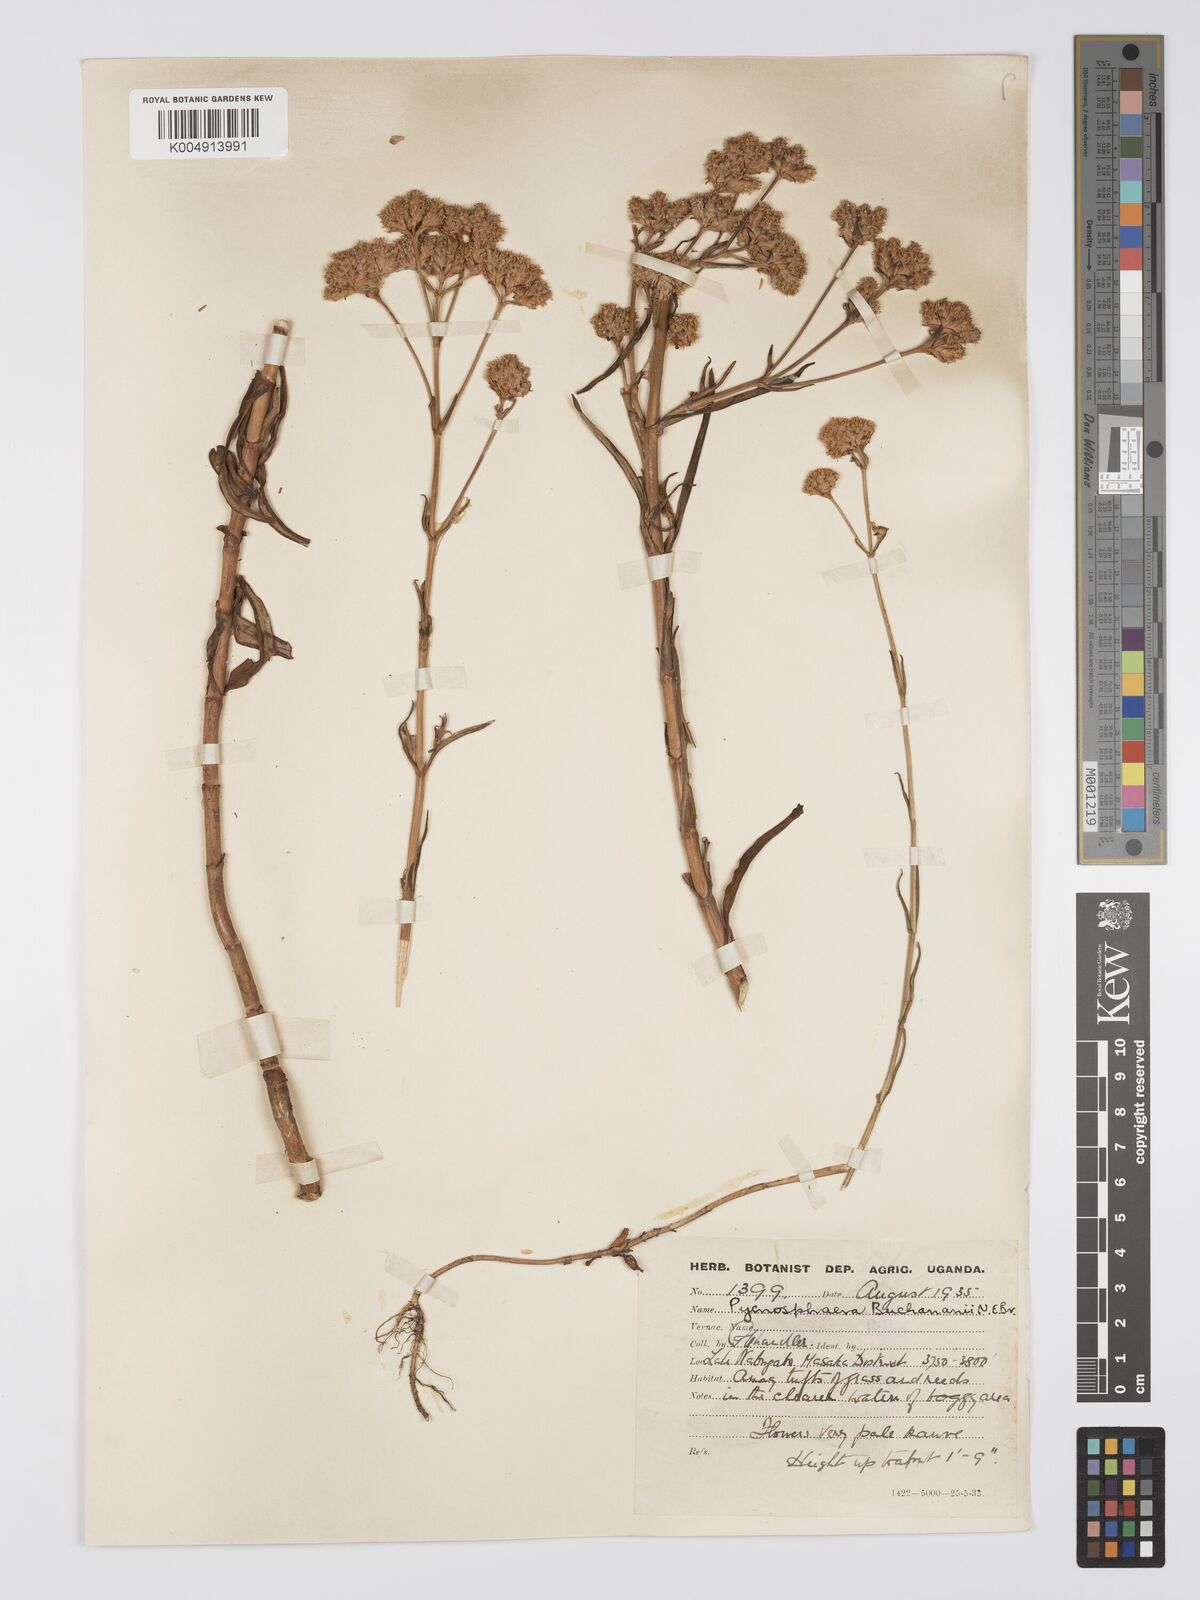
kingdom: Plantae
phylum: Tracheophyta
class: Magnoliopsida
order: Gentianales
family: Gentianaceae
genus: Pycnosphaera
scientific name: Pycnosphaera buchananii
